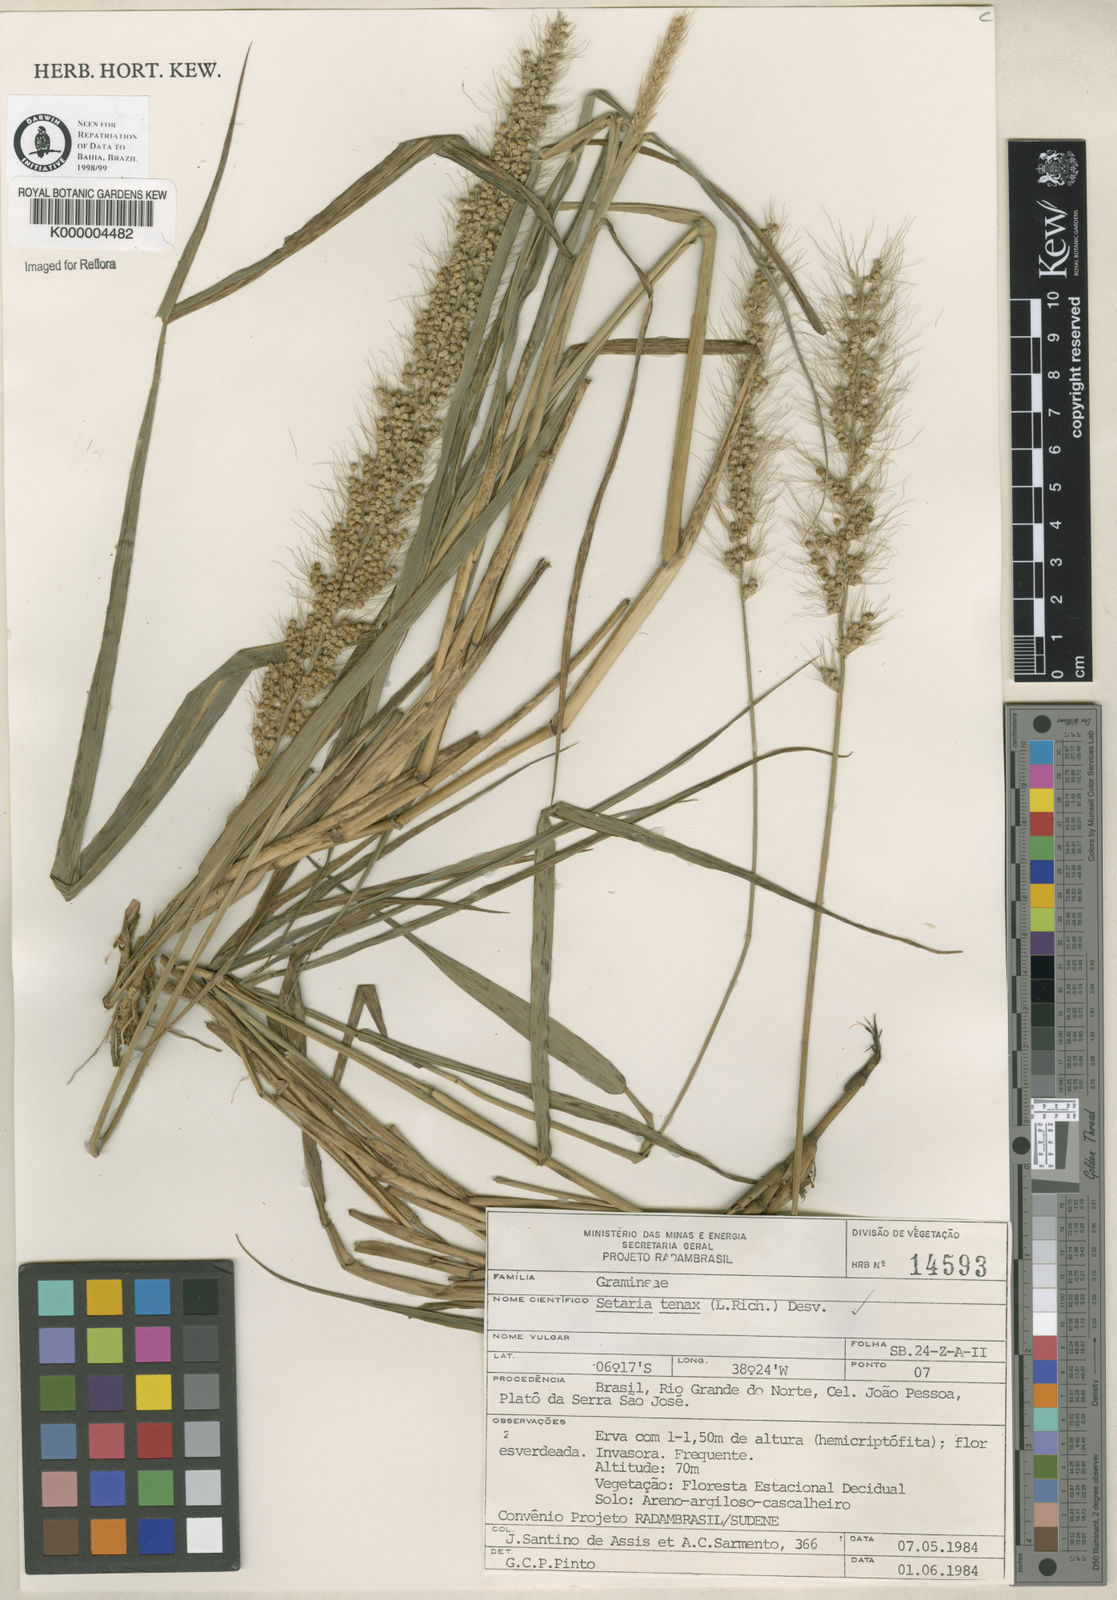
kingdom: Plantae
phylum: Tracheophyta
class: Liliopsida
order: Poales
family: Poaceae
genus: Setaria
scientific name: Setaria tenax
